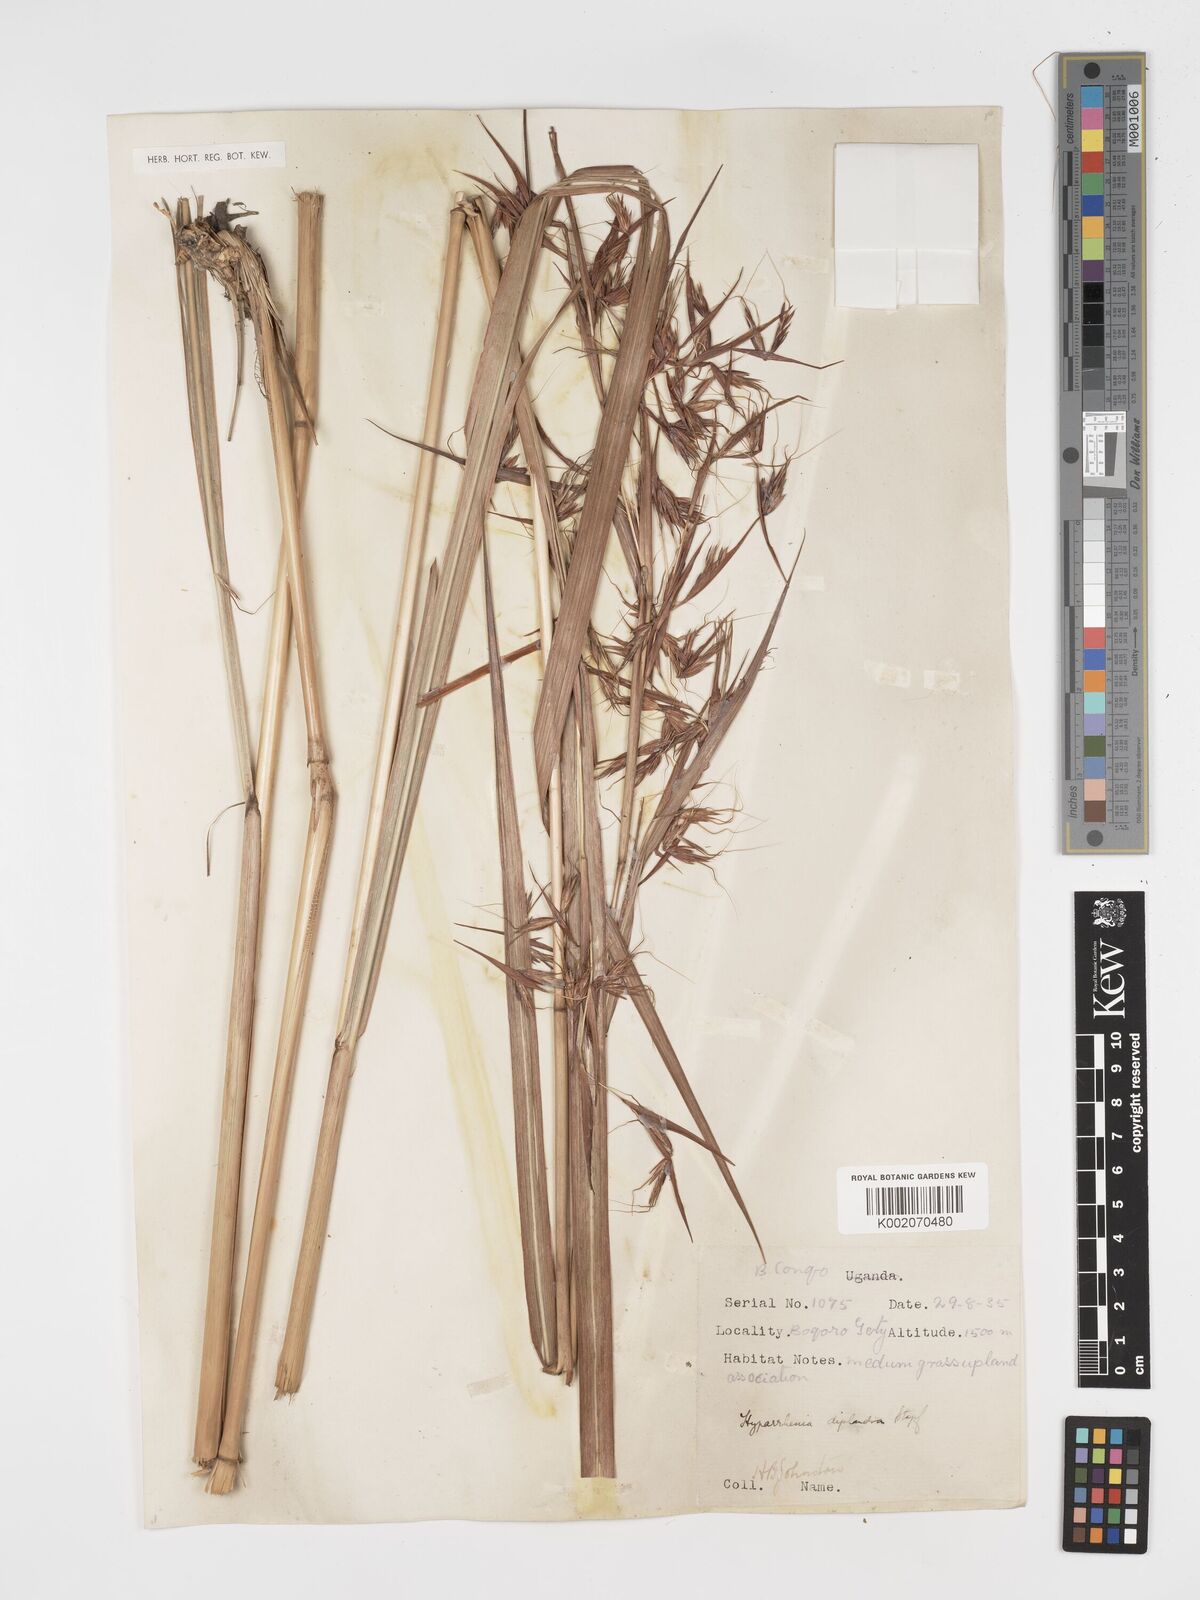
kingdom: Plantae
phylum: Tracheophyta
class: Liliopsida
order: Poales
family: Poaceae
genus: Hyparrhenia
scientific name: Hyparrhenia diplandra
